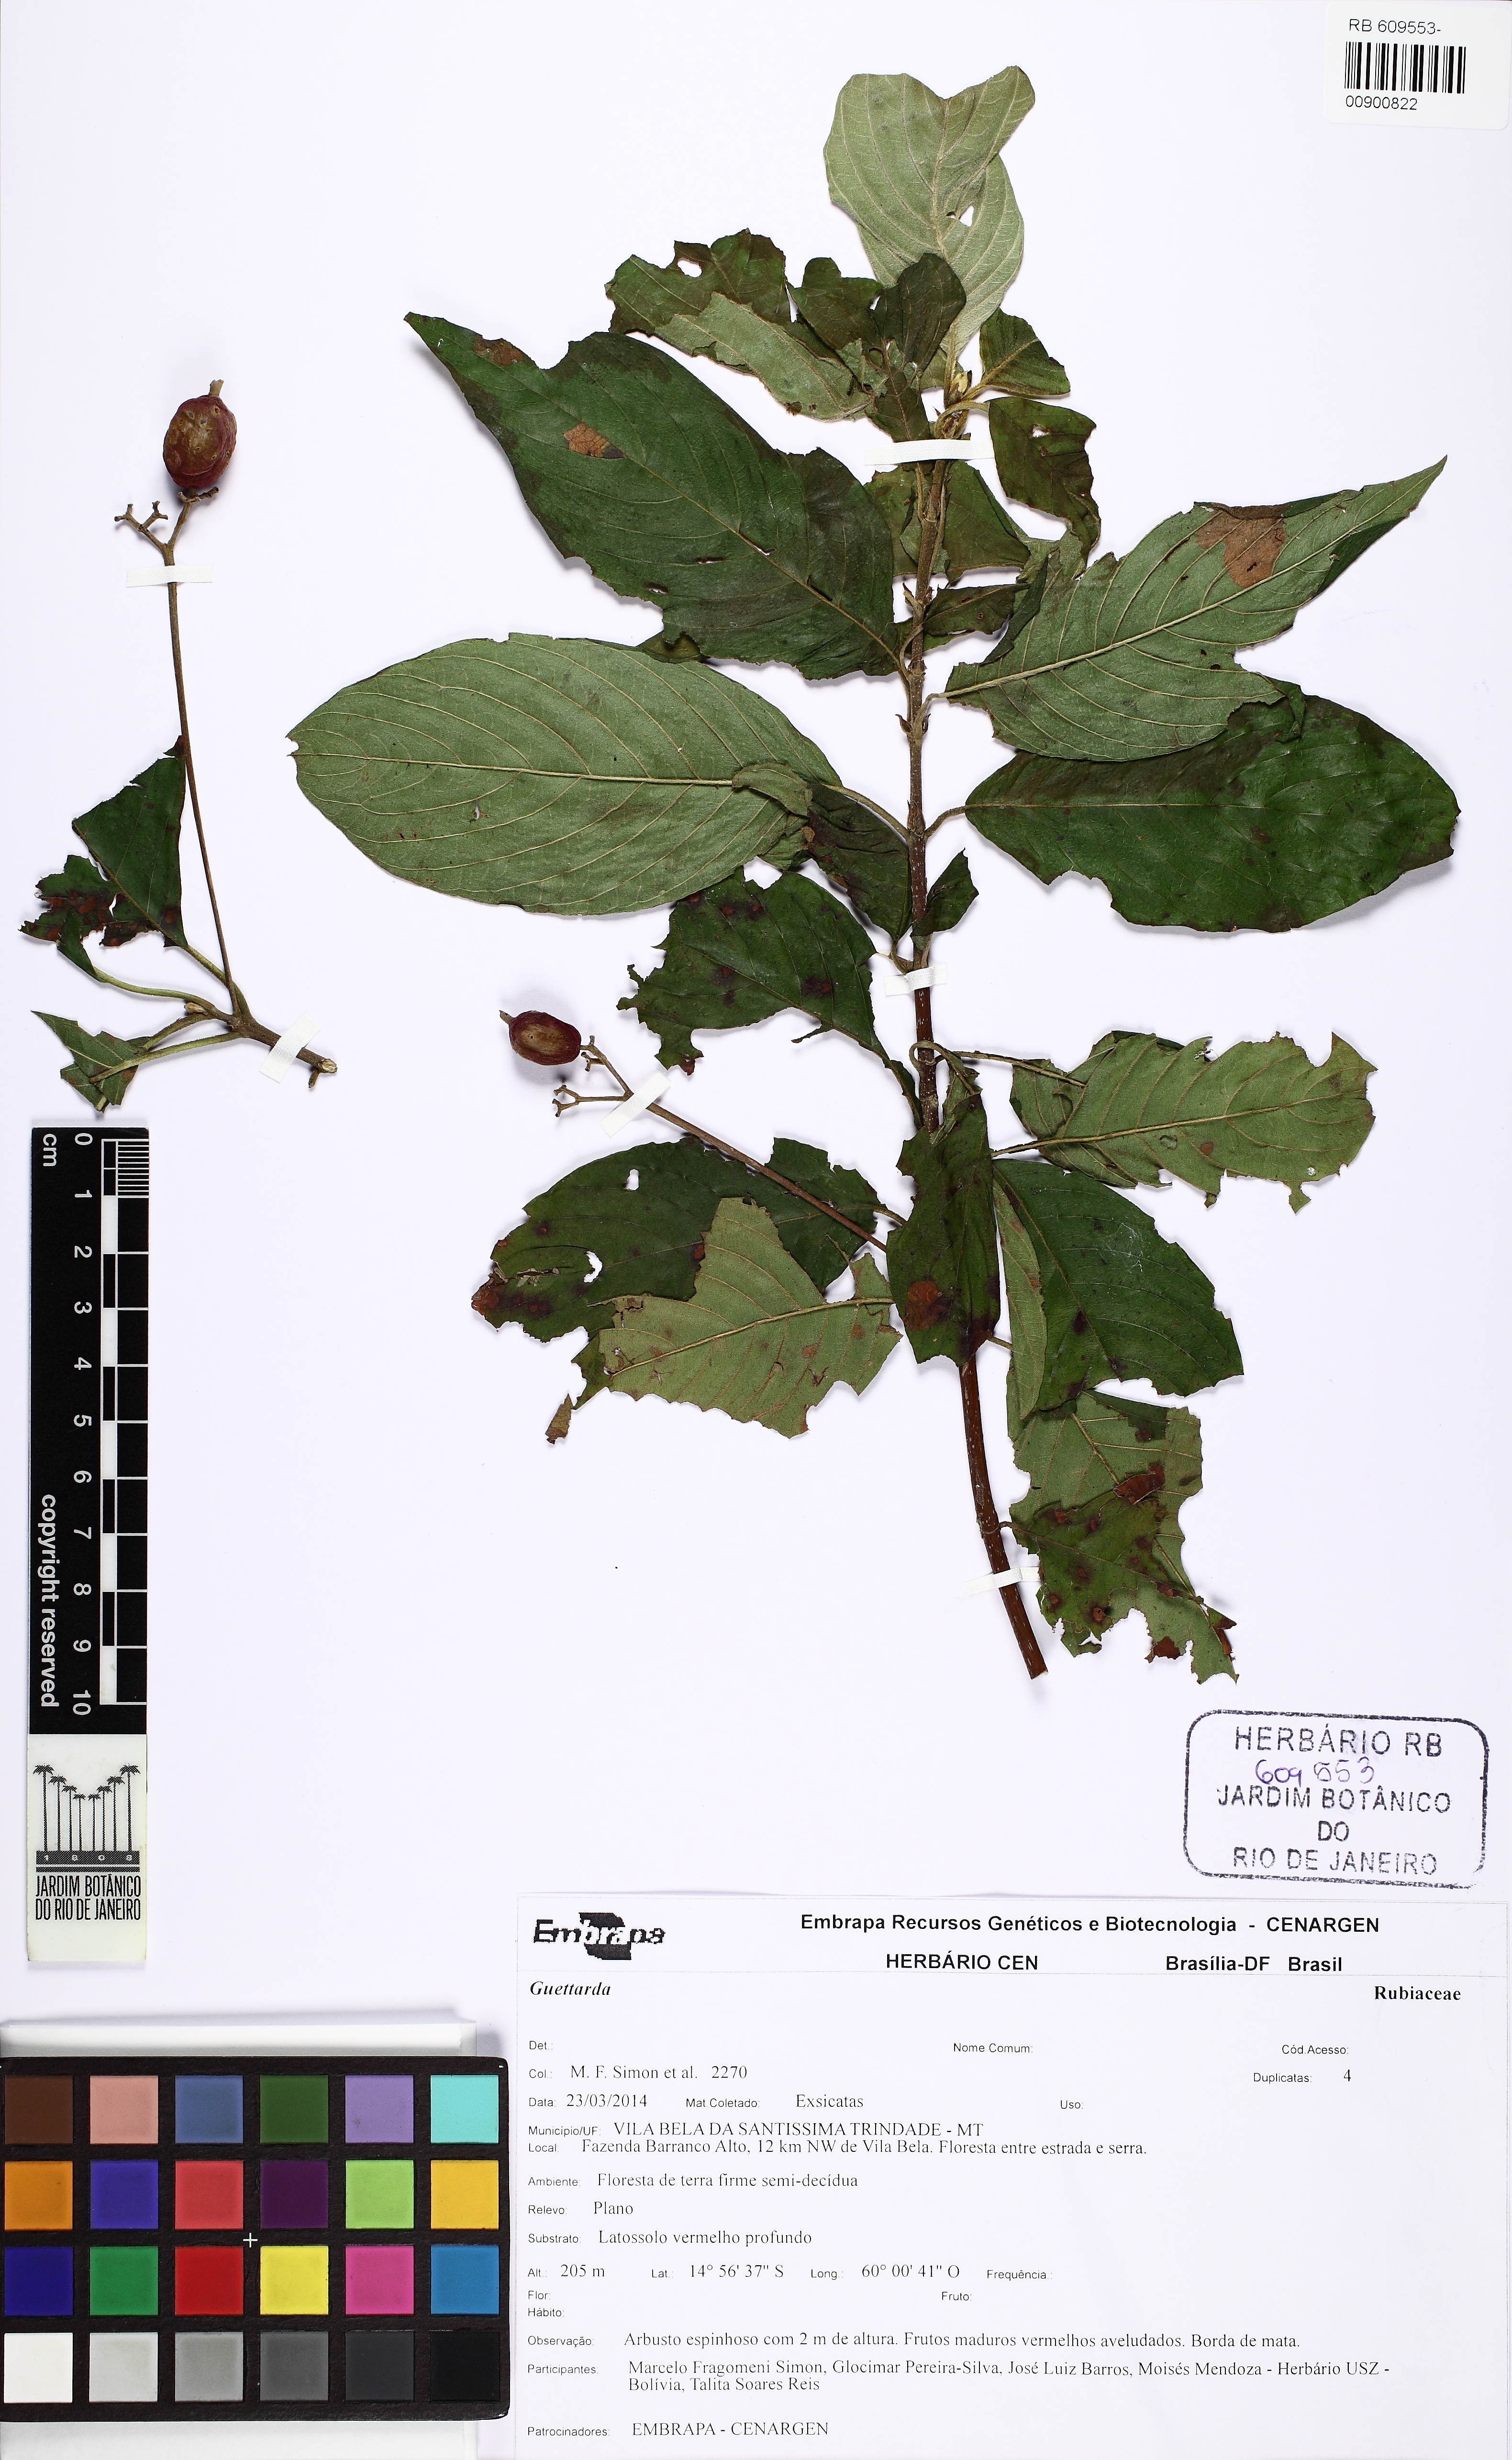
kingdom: Plantae
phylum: Tracheophyta
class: Magnoliopsida
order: Gentianales
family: Rubiaceae
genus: Guettarda
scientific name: Guettarda
